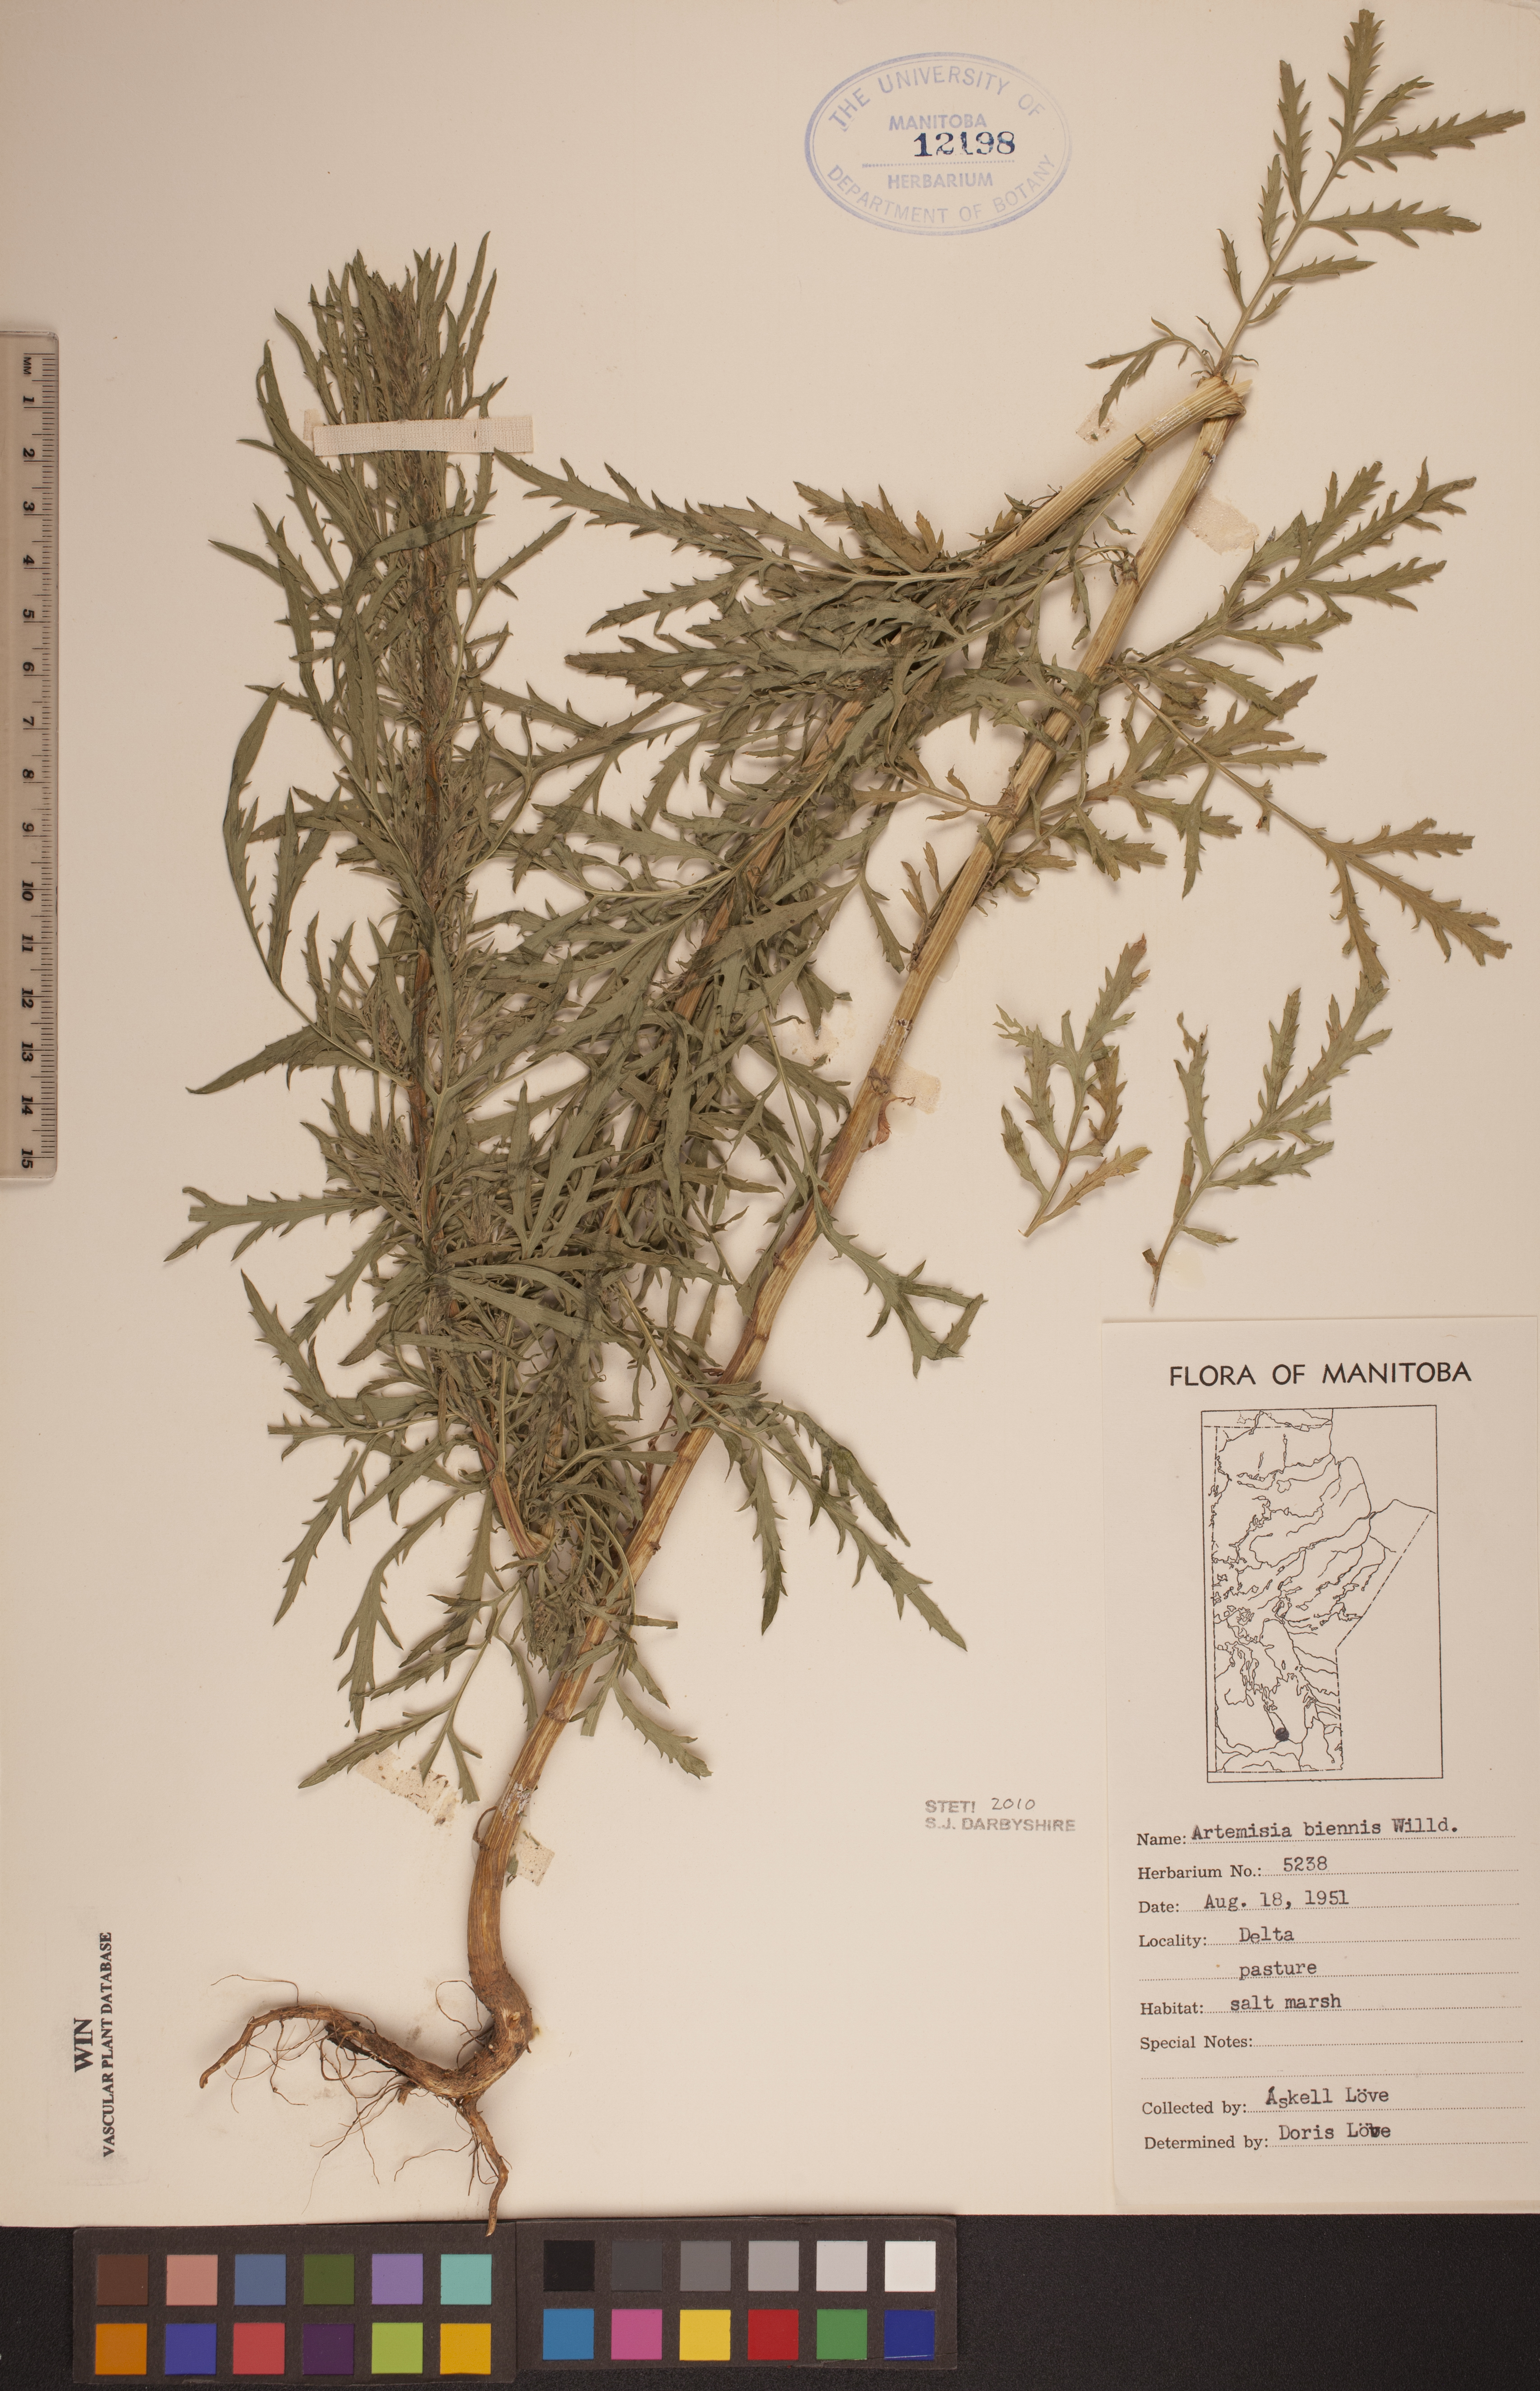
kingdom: Plantae
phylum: Tracheophyta
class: Magnoliopsida
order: Asterales
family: Asteraceae
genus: Artemisia
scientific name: Artemisia biennis
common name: Biennial wormwood
